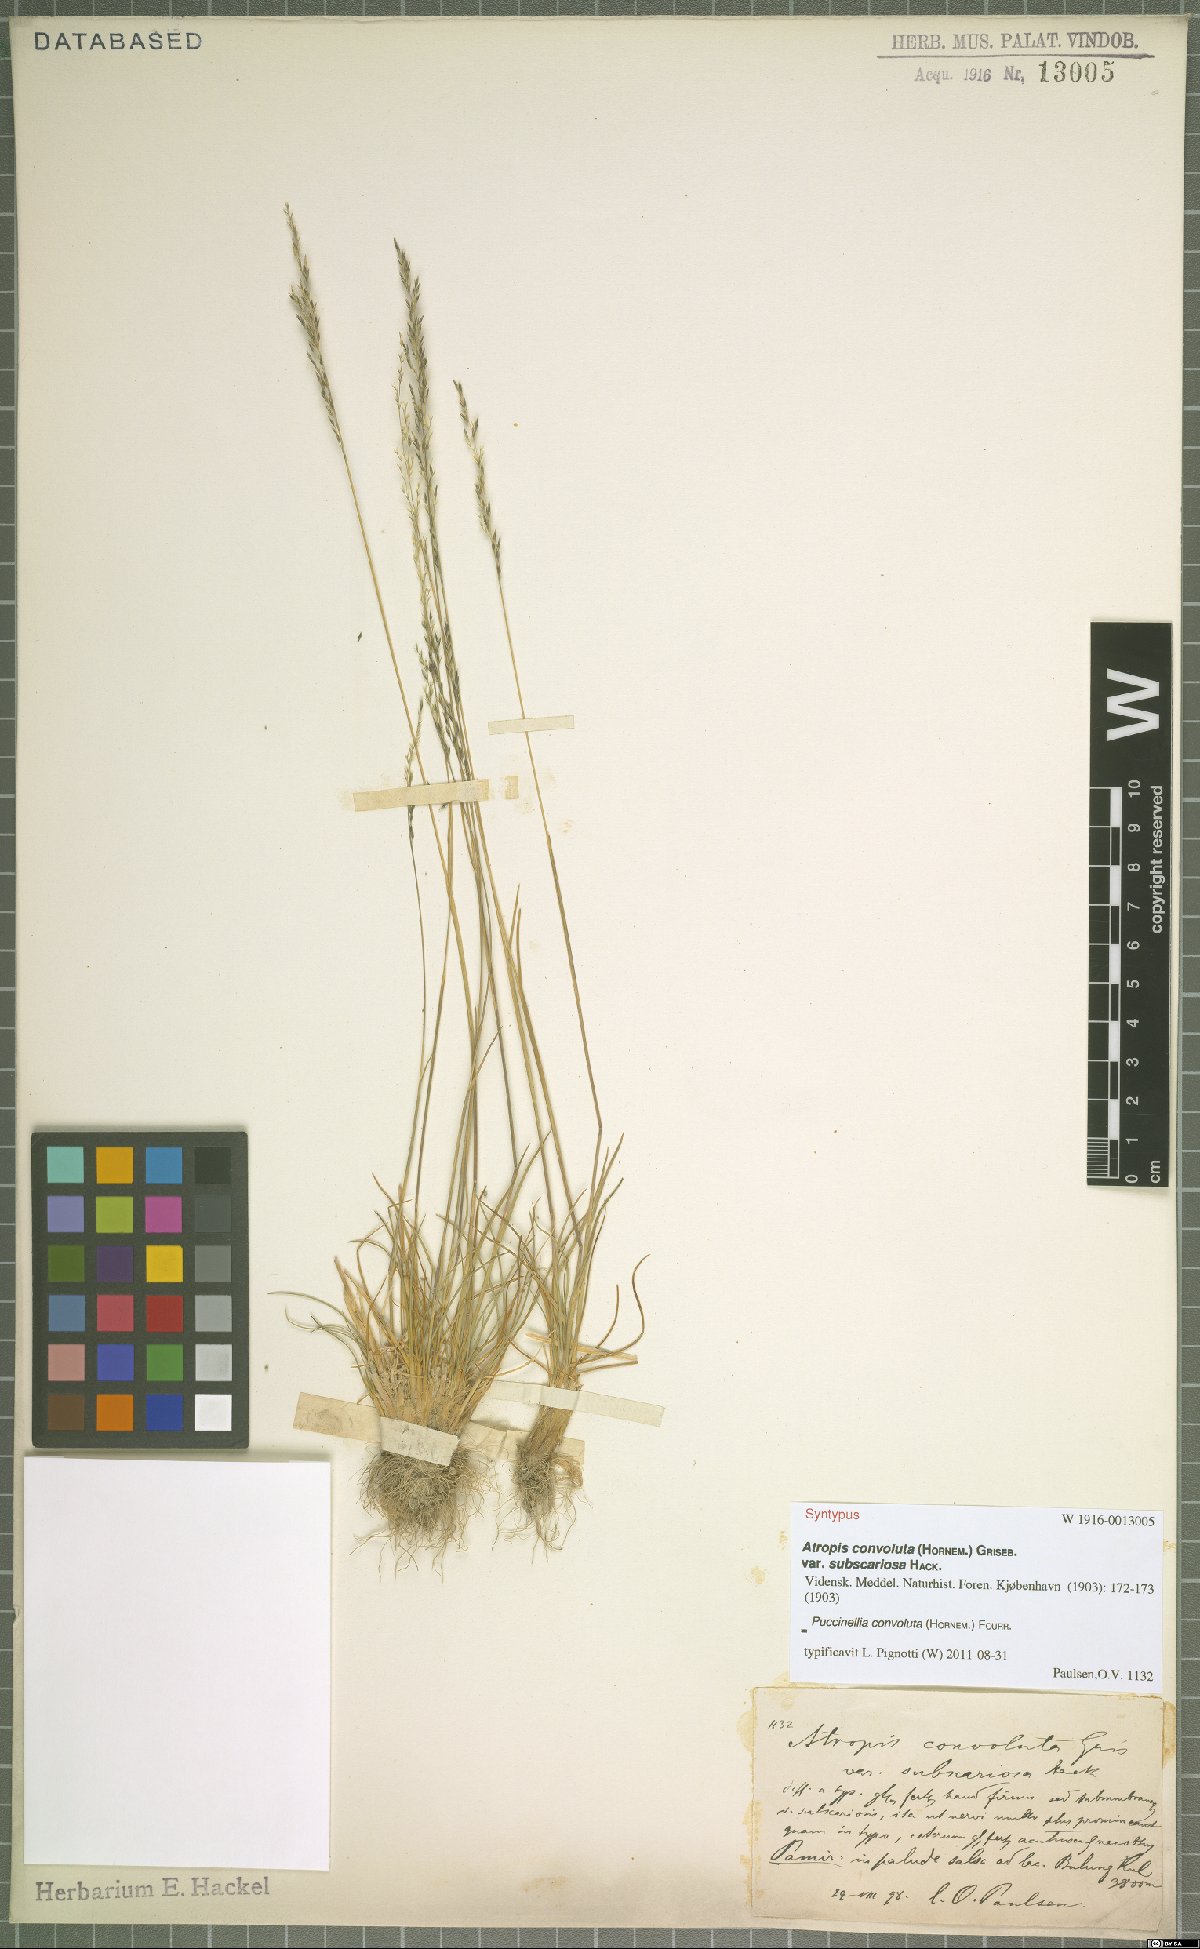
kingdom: Plantae
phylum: Tracheophyta
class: Liliopsida
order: Poales
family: Poaceae
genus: Puccinellia
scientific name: Puccinellia convoluta
